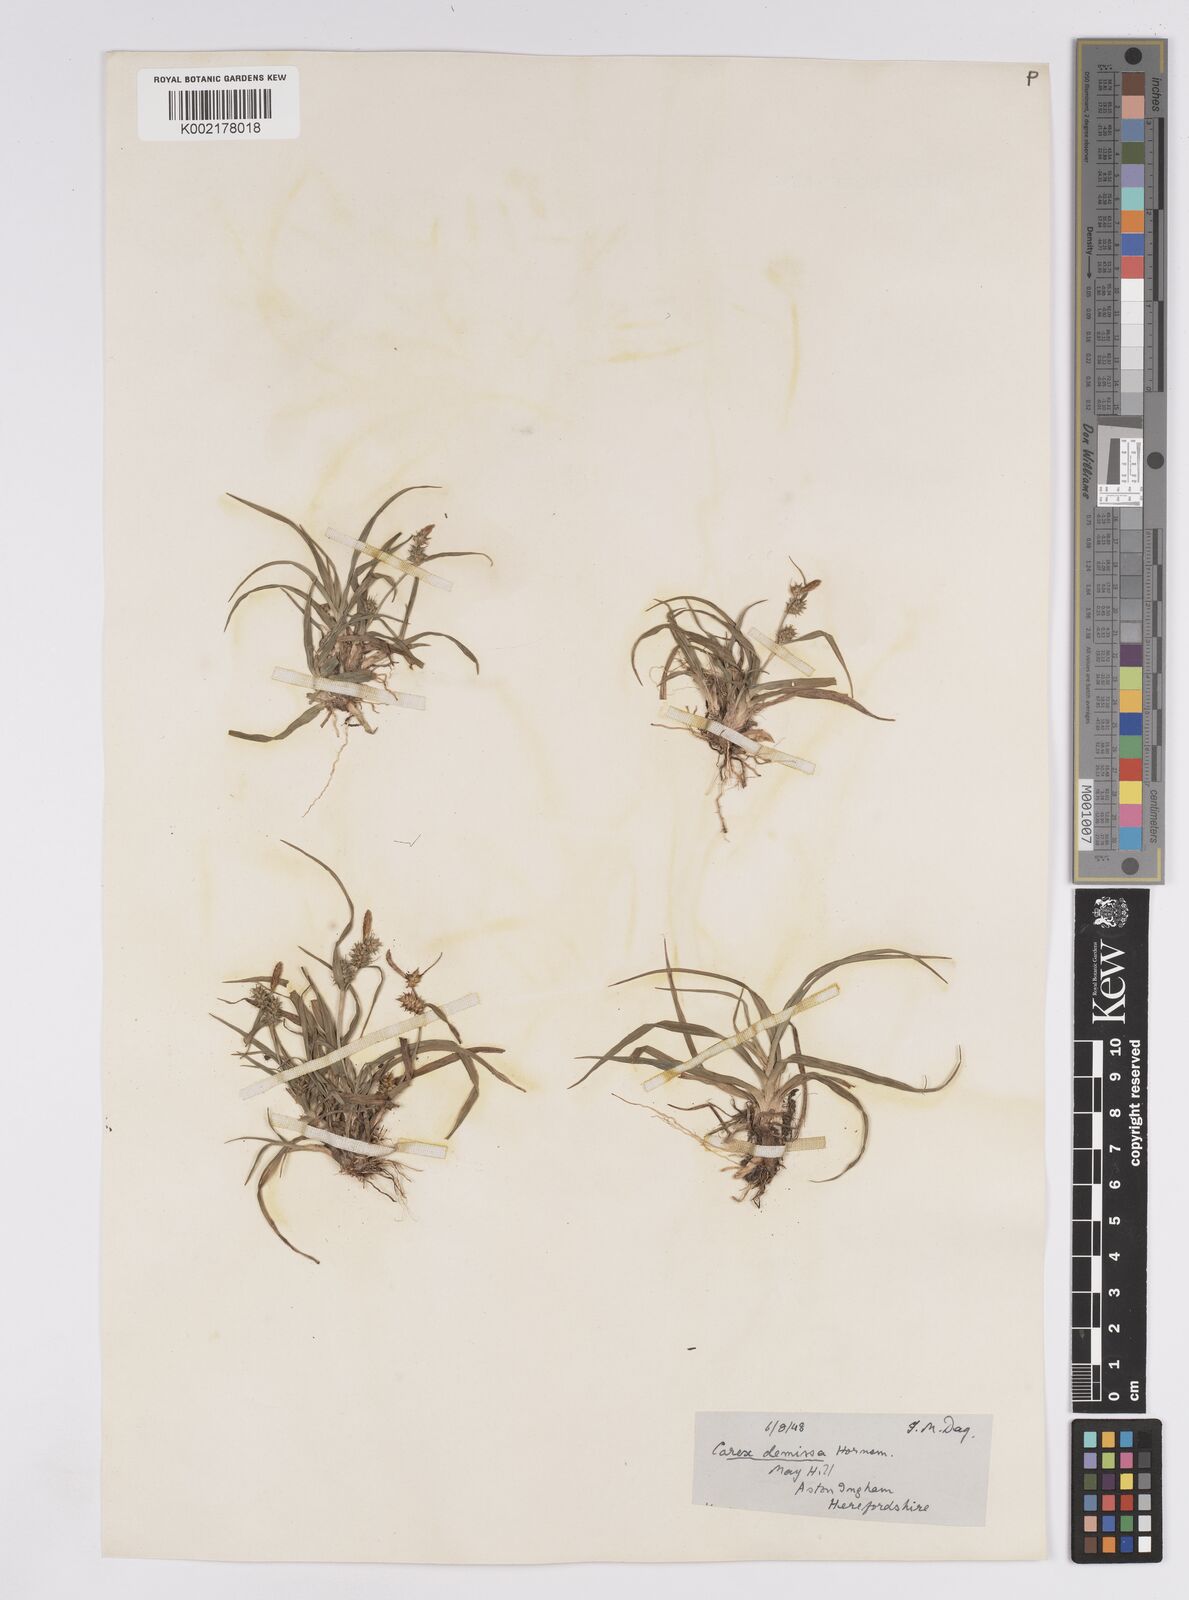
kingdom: Plantae
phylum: Tracheophyta
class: Liliopsida
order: Poales
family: Cyperaceae
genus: Carex
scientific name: Carex demissa
